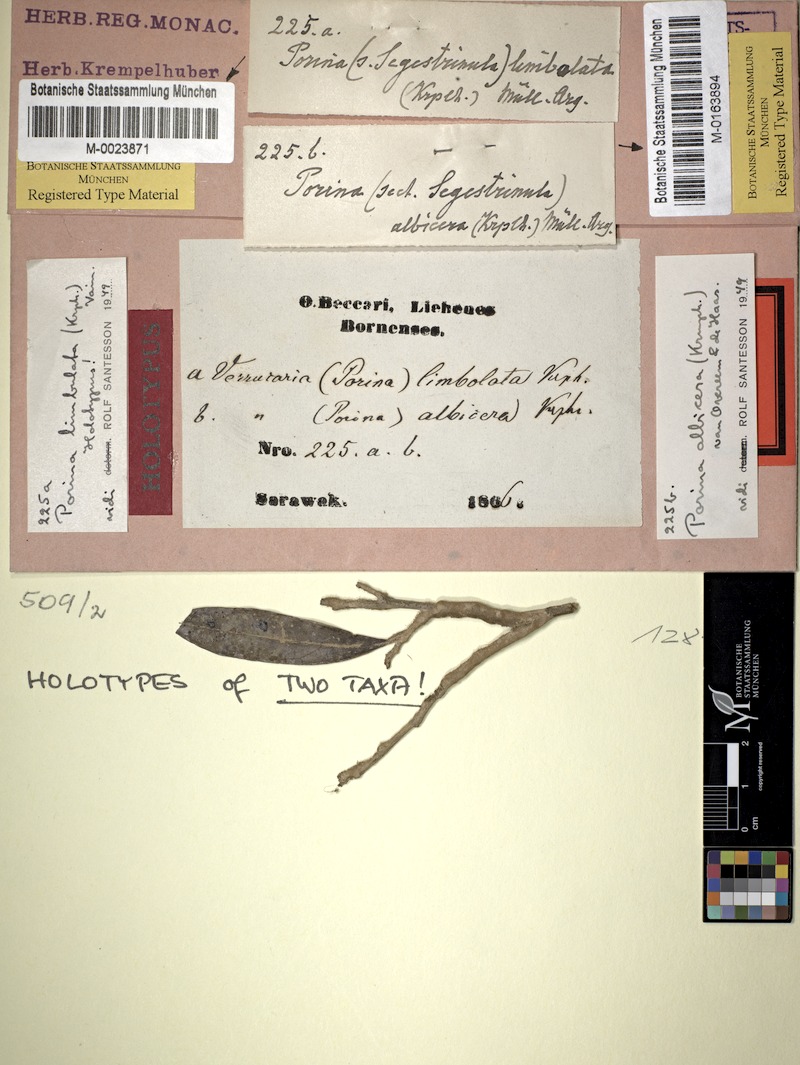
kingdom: Fungi
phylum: Ascomycota
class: Lecanoromycetes
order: Pertusariales
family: Pertusariaceae
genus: Porina
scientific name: Porina albicera
